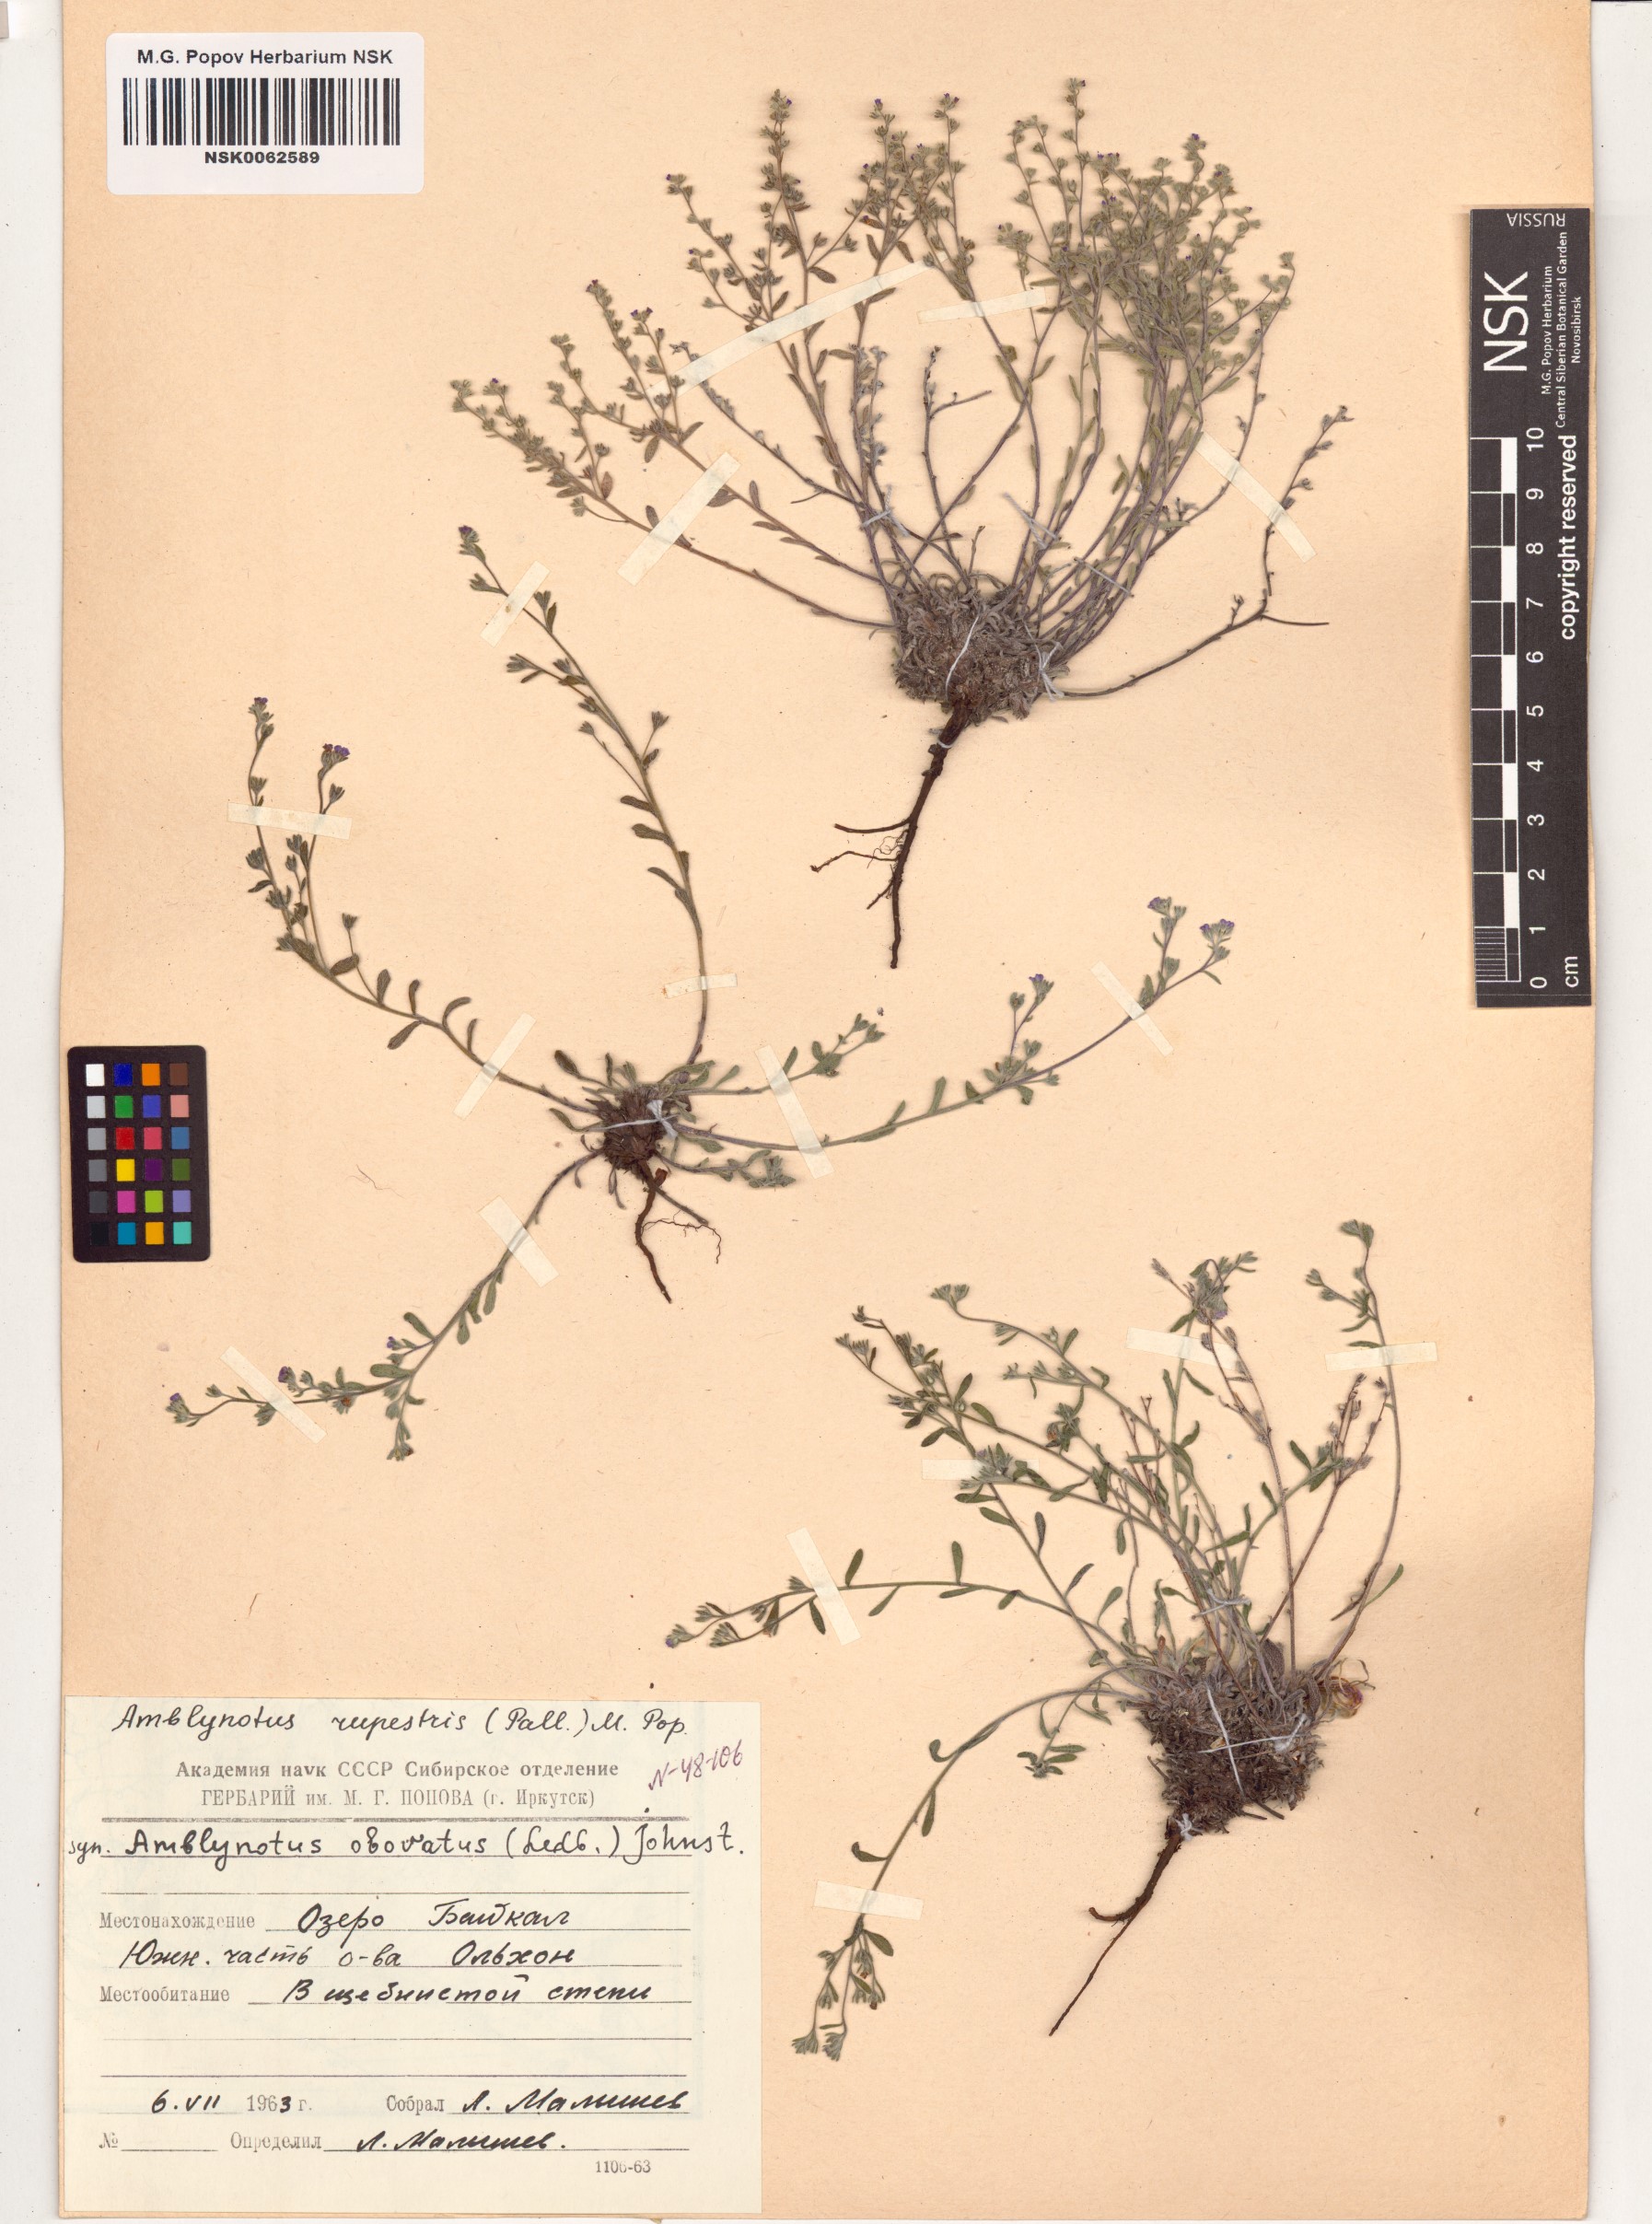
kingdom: Plantae
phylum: Tracheophyta
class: Magnoliopsida
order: Boraginales
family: Boraginaceae
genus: Eritrichium
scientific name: Eritrichium rupestre
